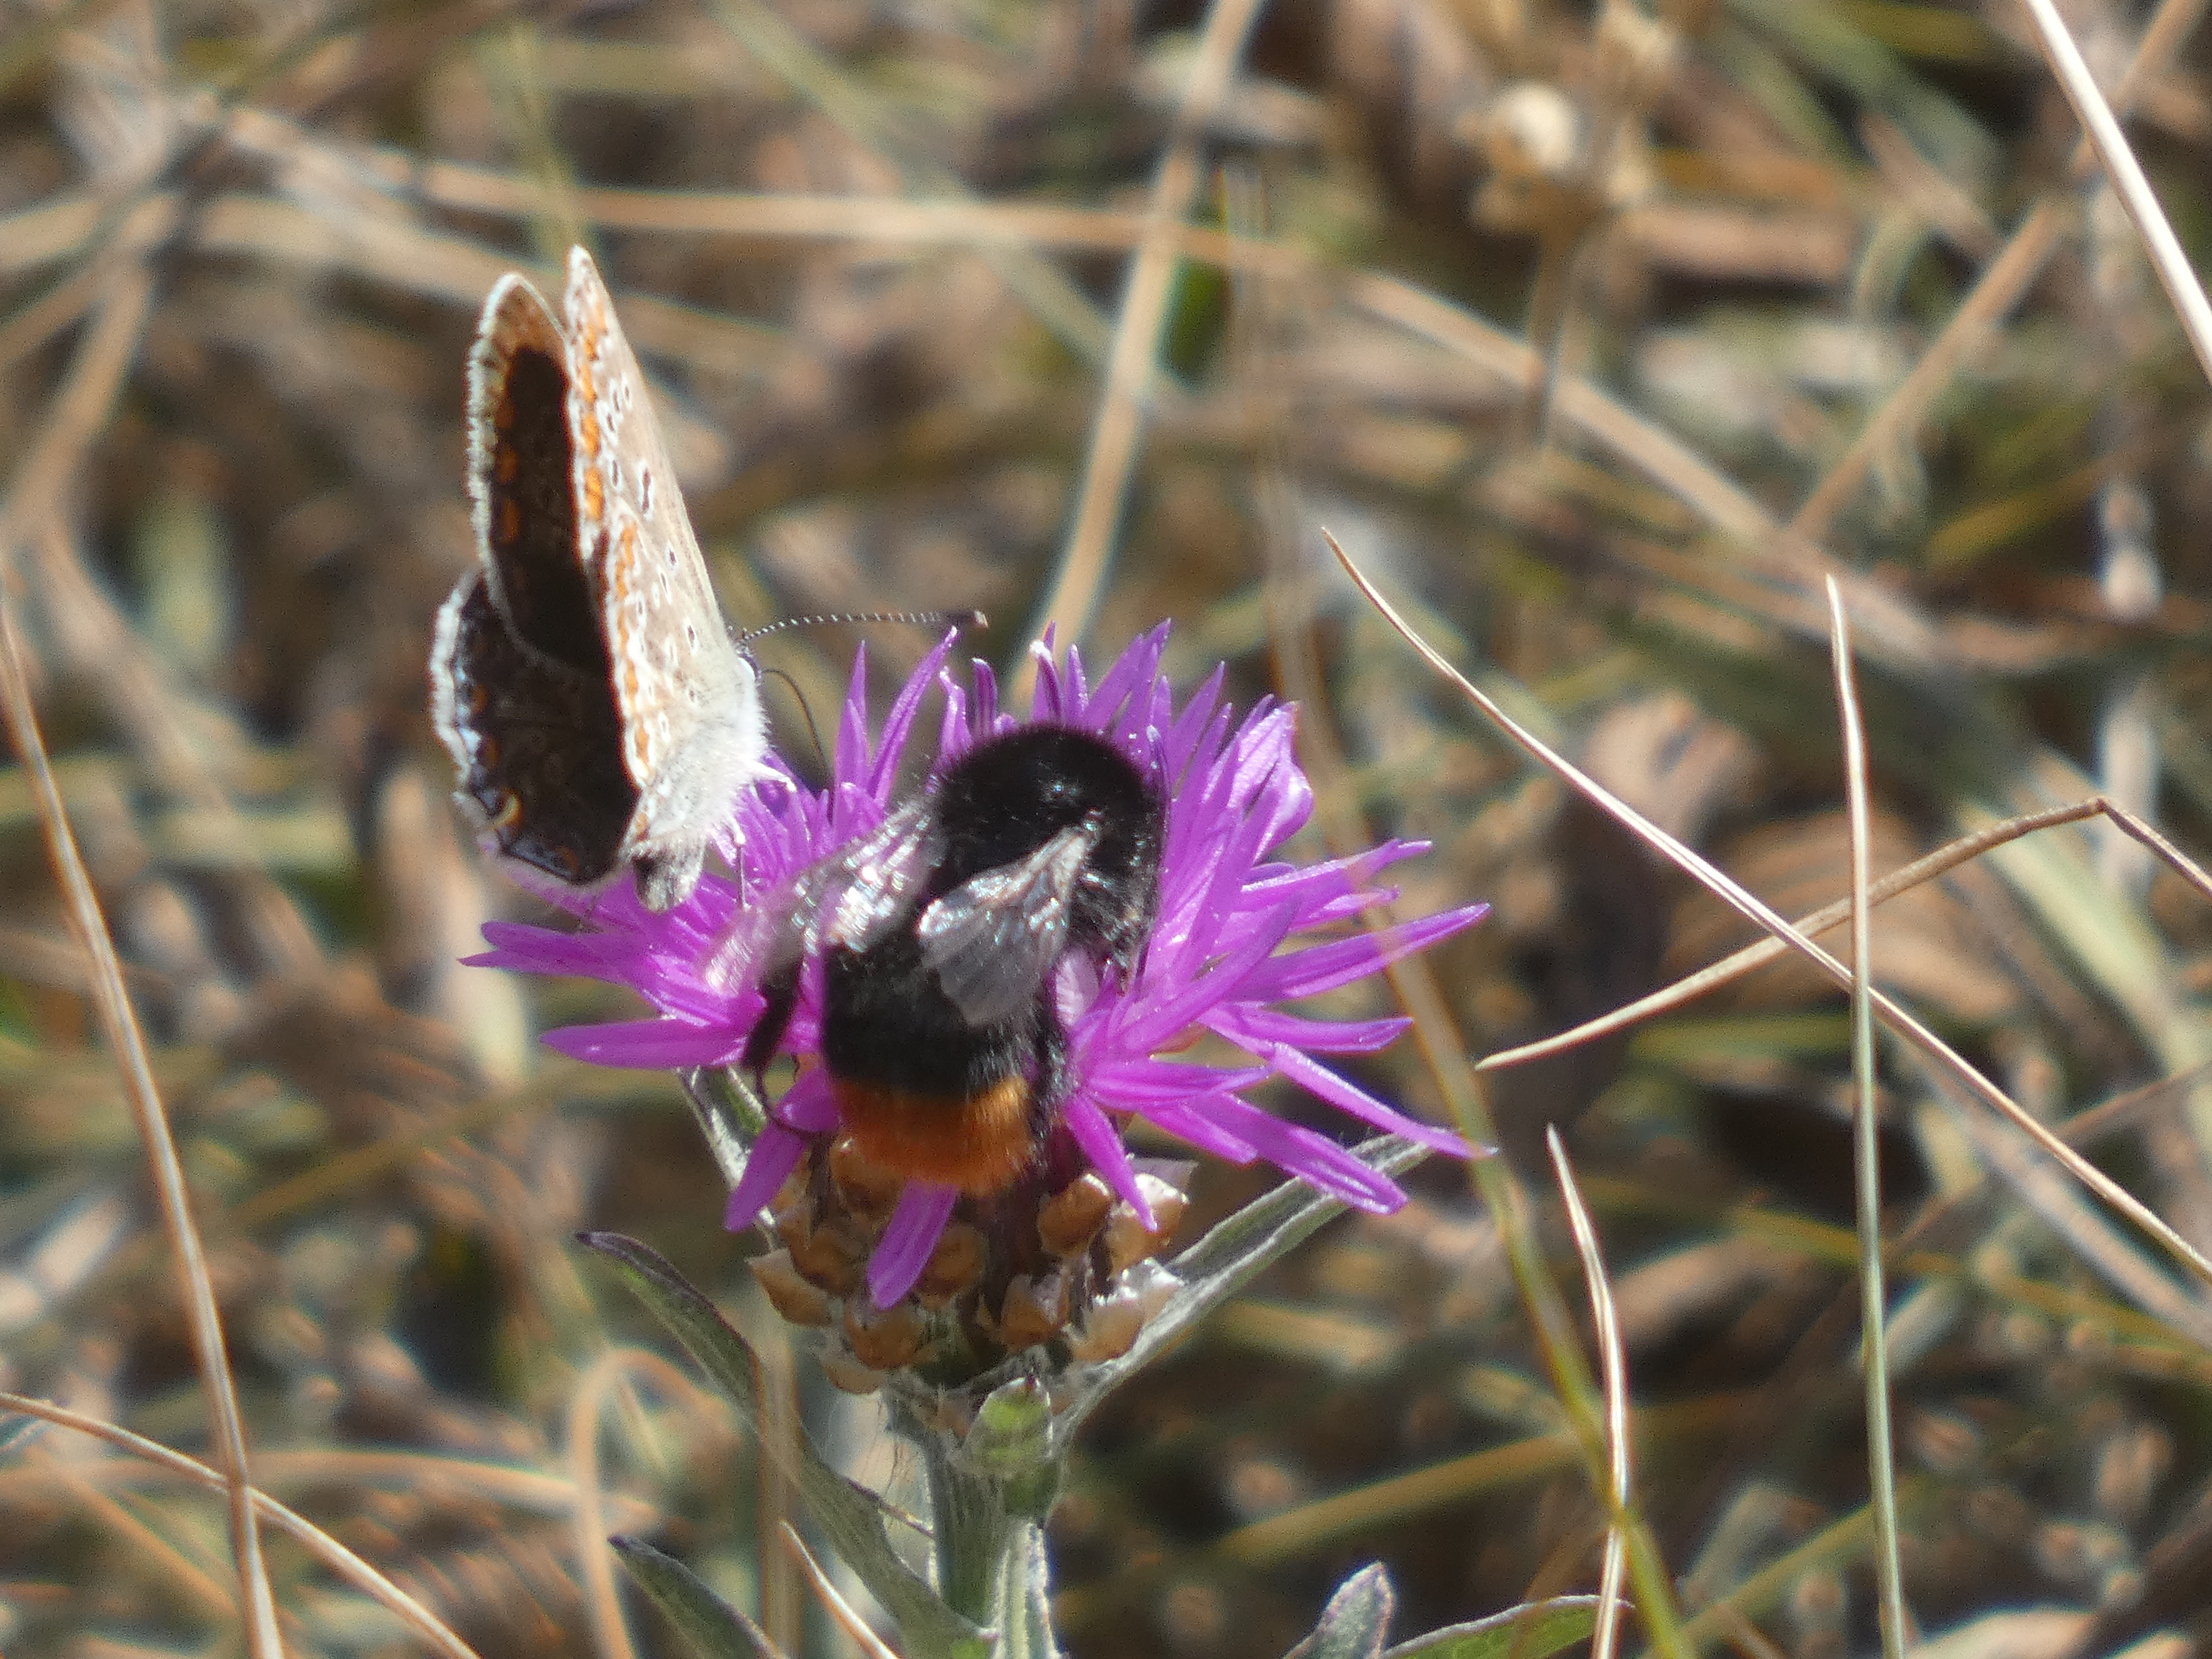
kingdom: Animalia
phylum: Arthropoda
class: Insecta
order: Lepidoptera
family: Lycaenidae
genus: Polyommatus
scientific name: Polyommatus icarus
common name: Almindelig blåfugl
